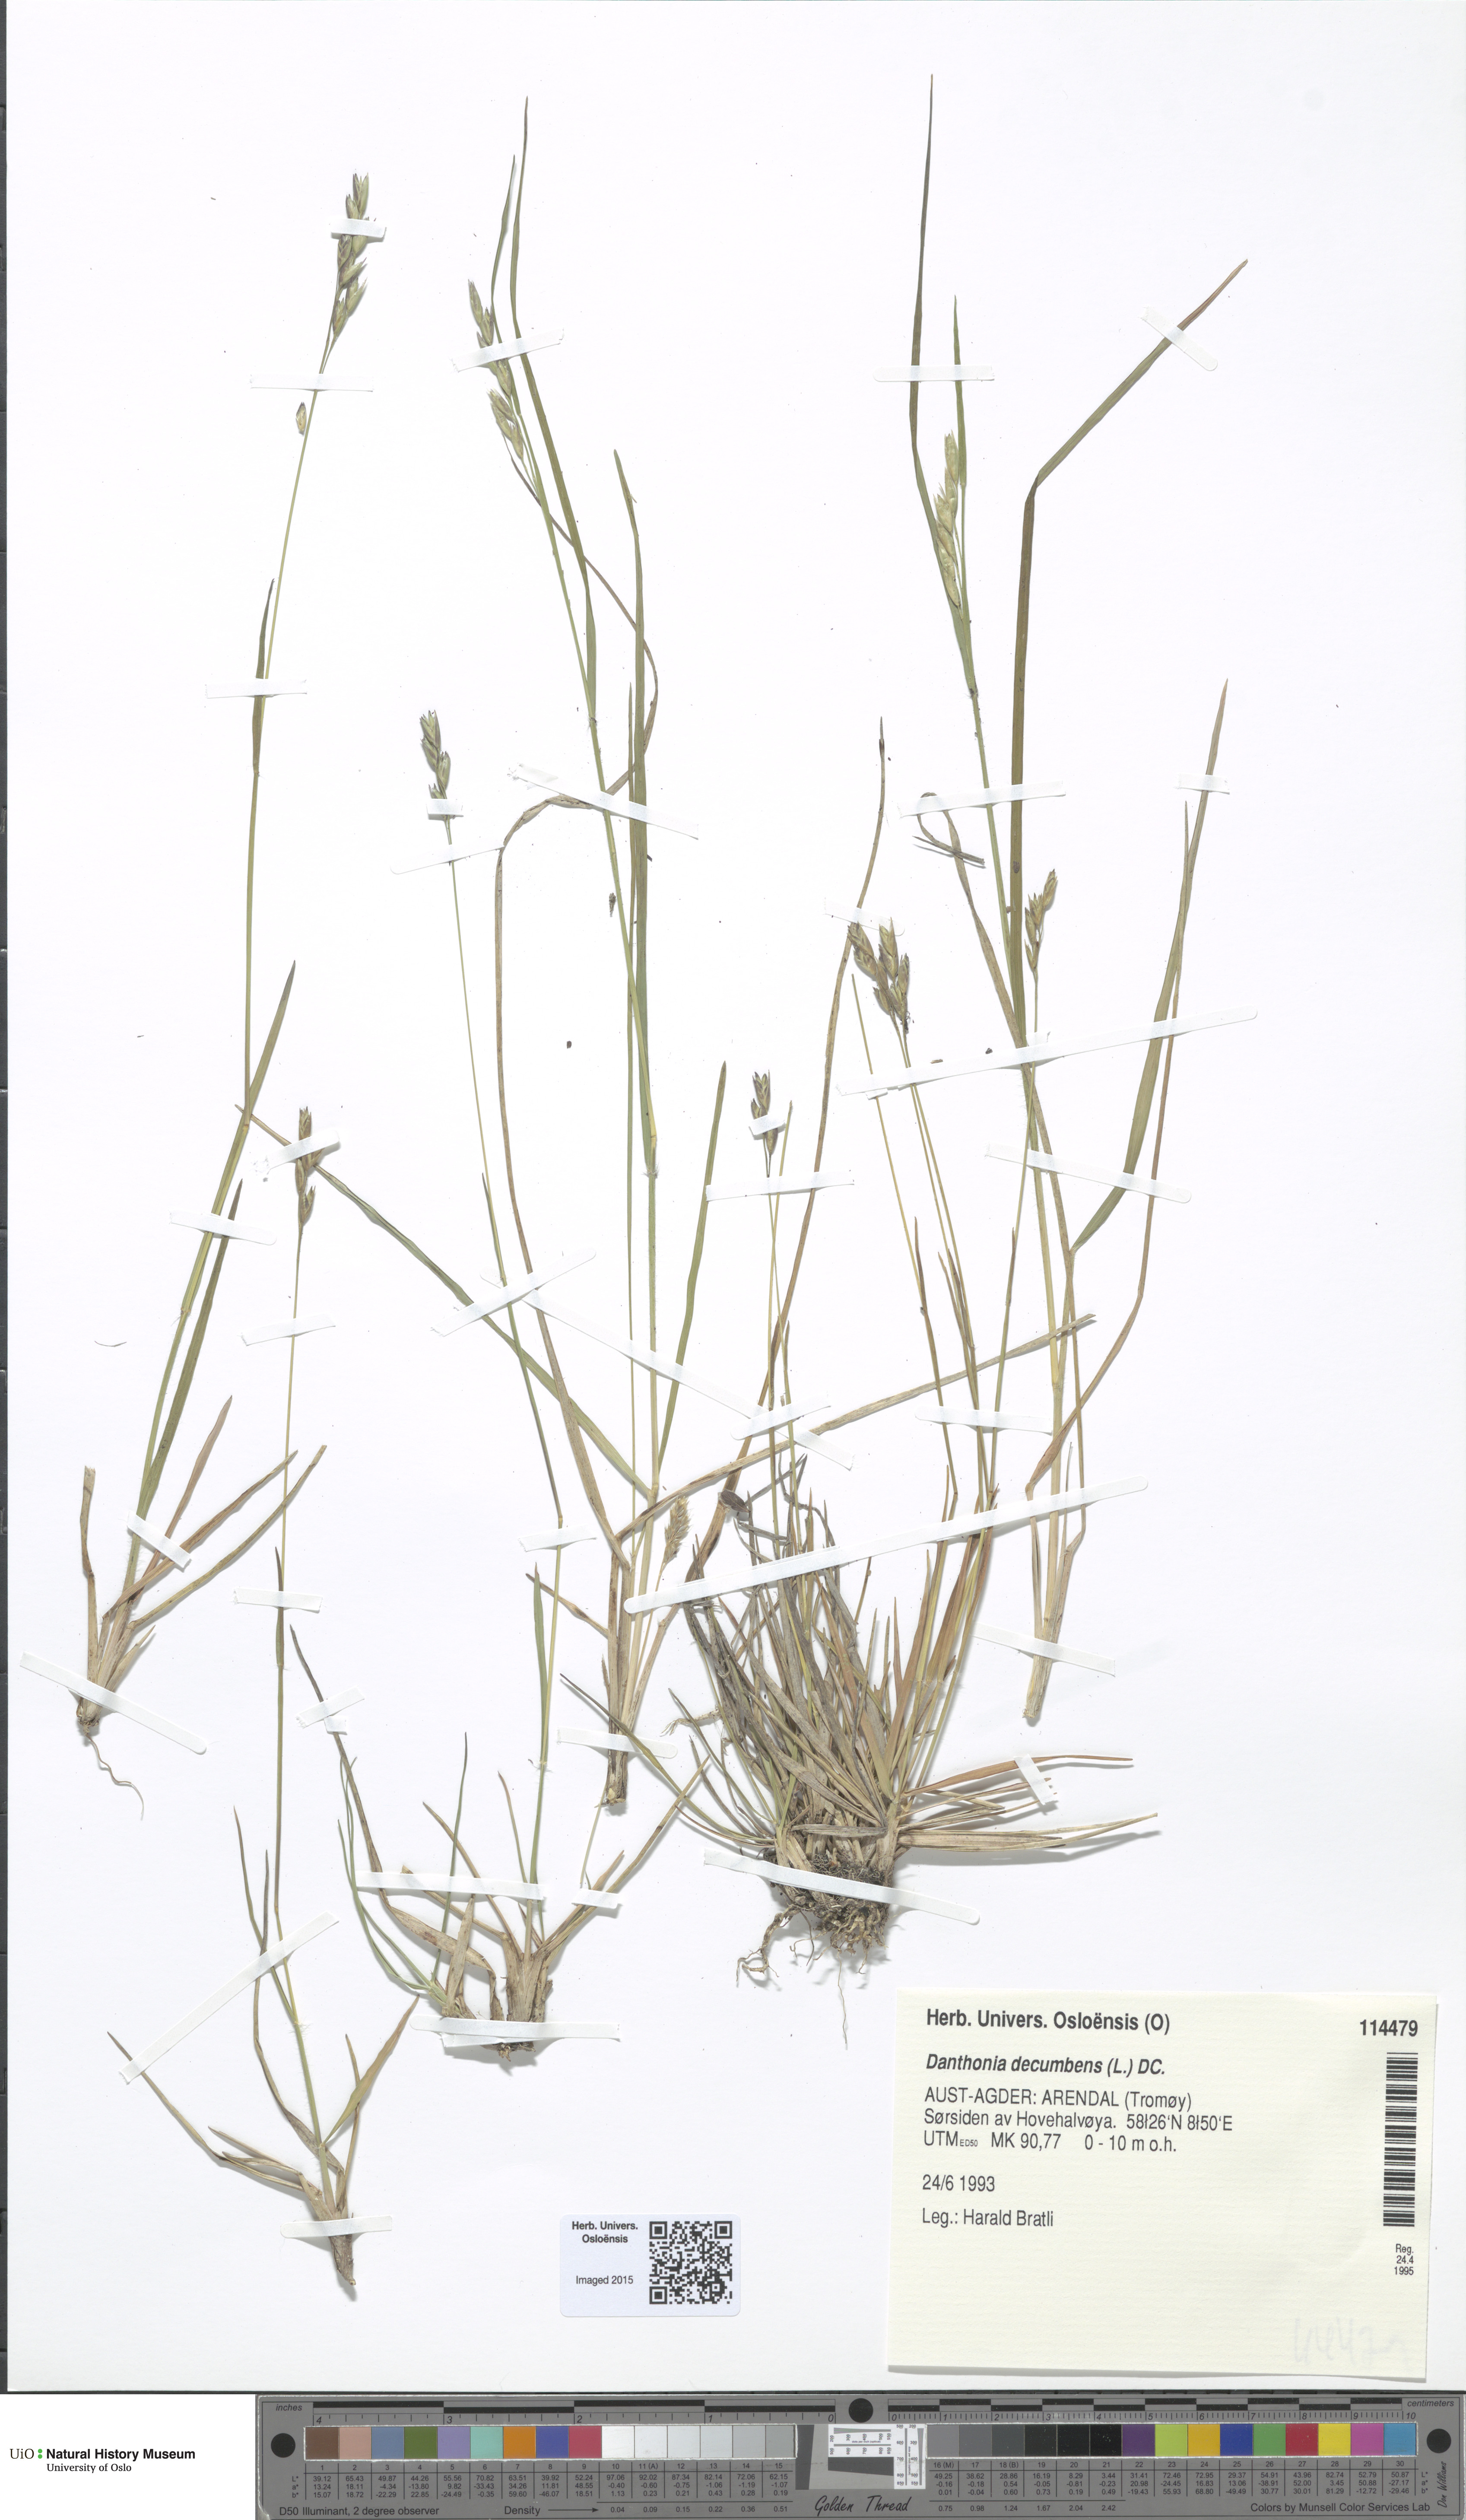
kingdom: Plantae
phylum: Tracheophyta
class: Liliopsida
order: Poales
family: Poaceae
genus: Danthonia
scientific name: Danthonia decumbens
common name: Common heathgrass
